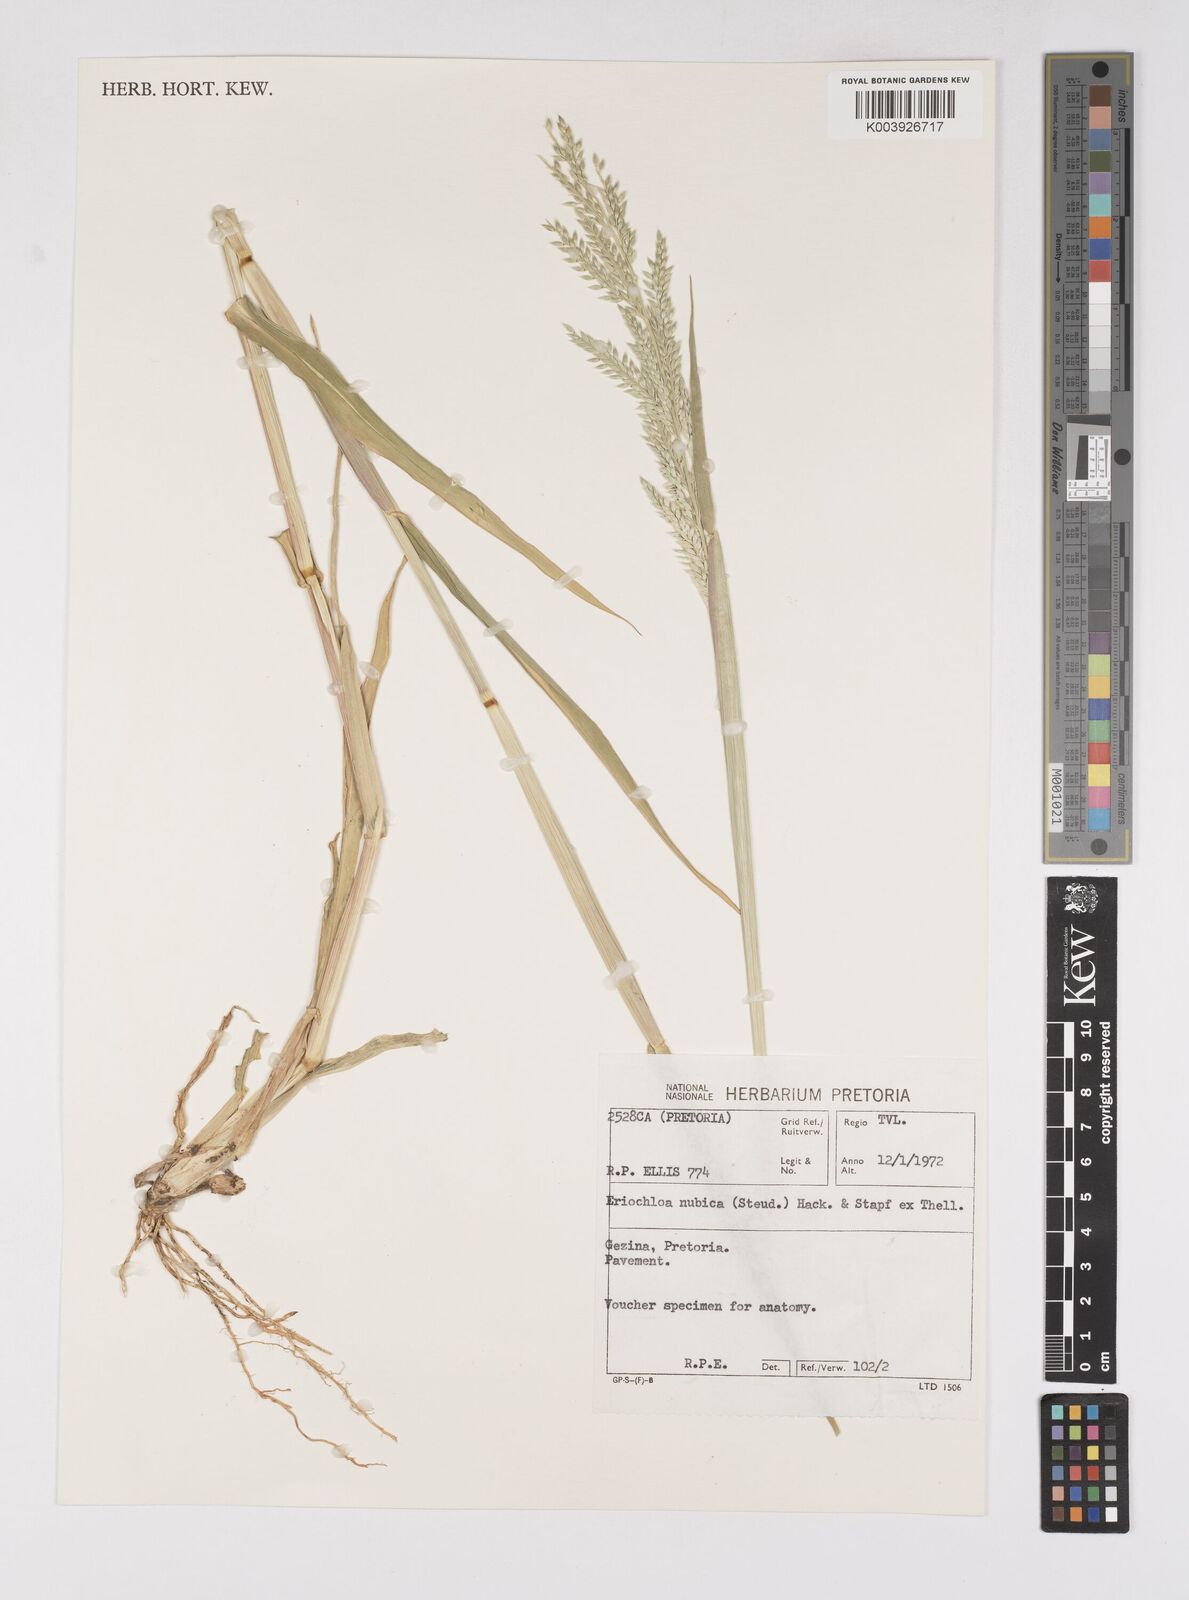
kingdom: Plantae
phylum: Tracheophyta
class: Liliopsida
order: Poales
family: Poaceae
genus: Eriochloa
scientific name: Eriochloa barbatus
